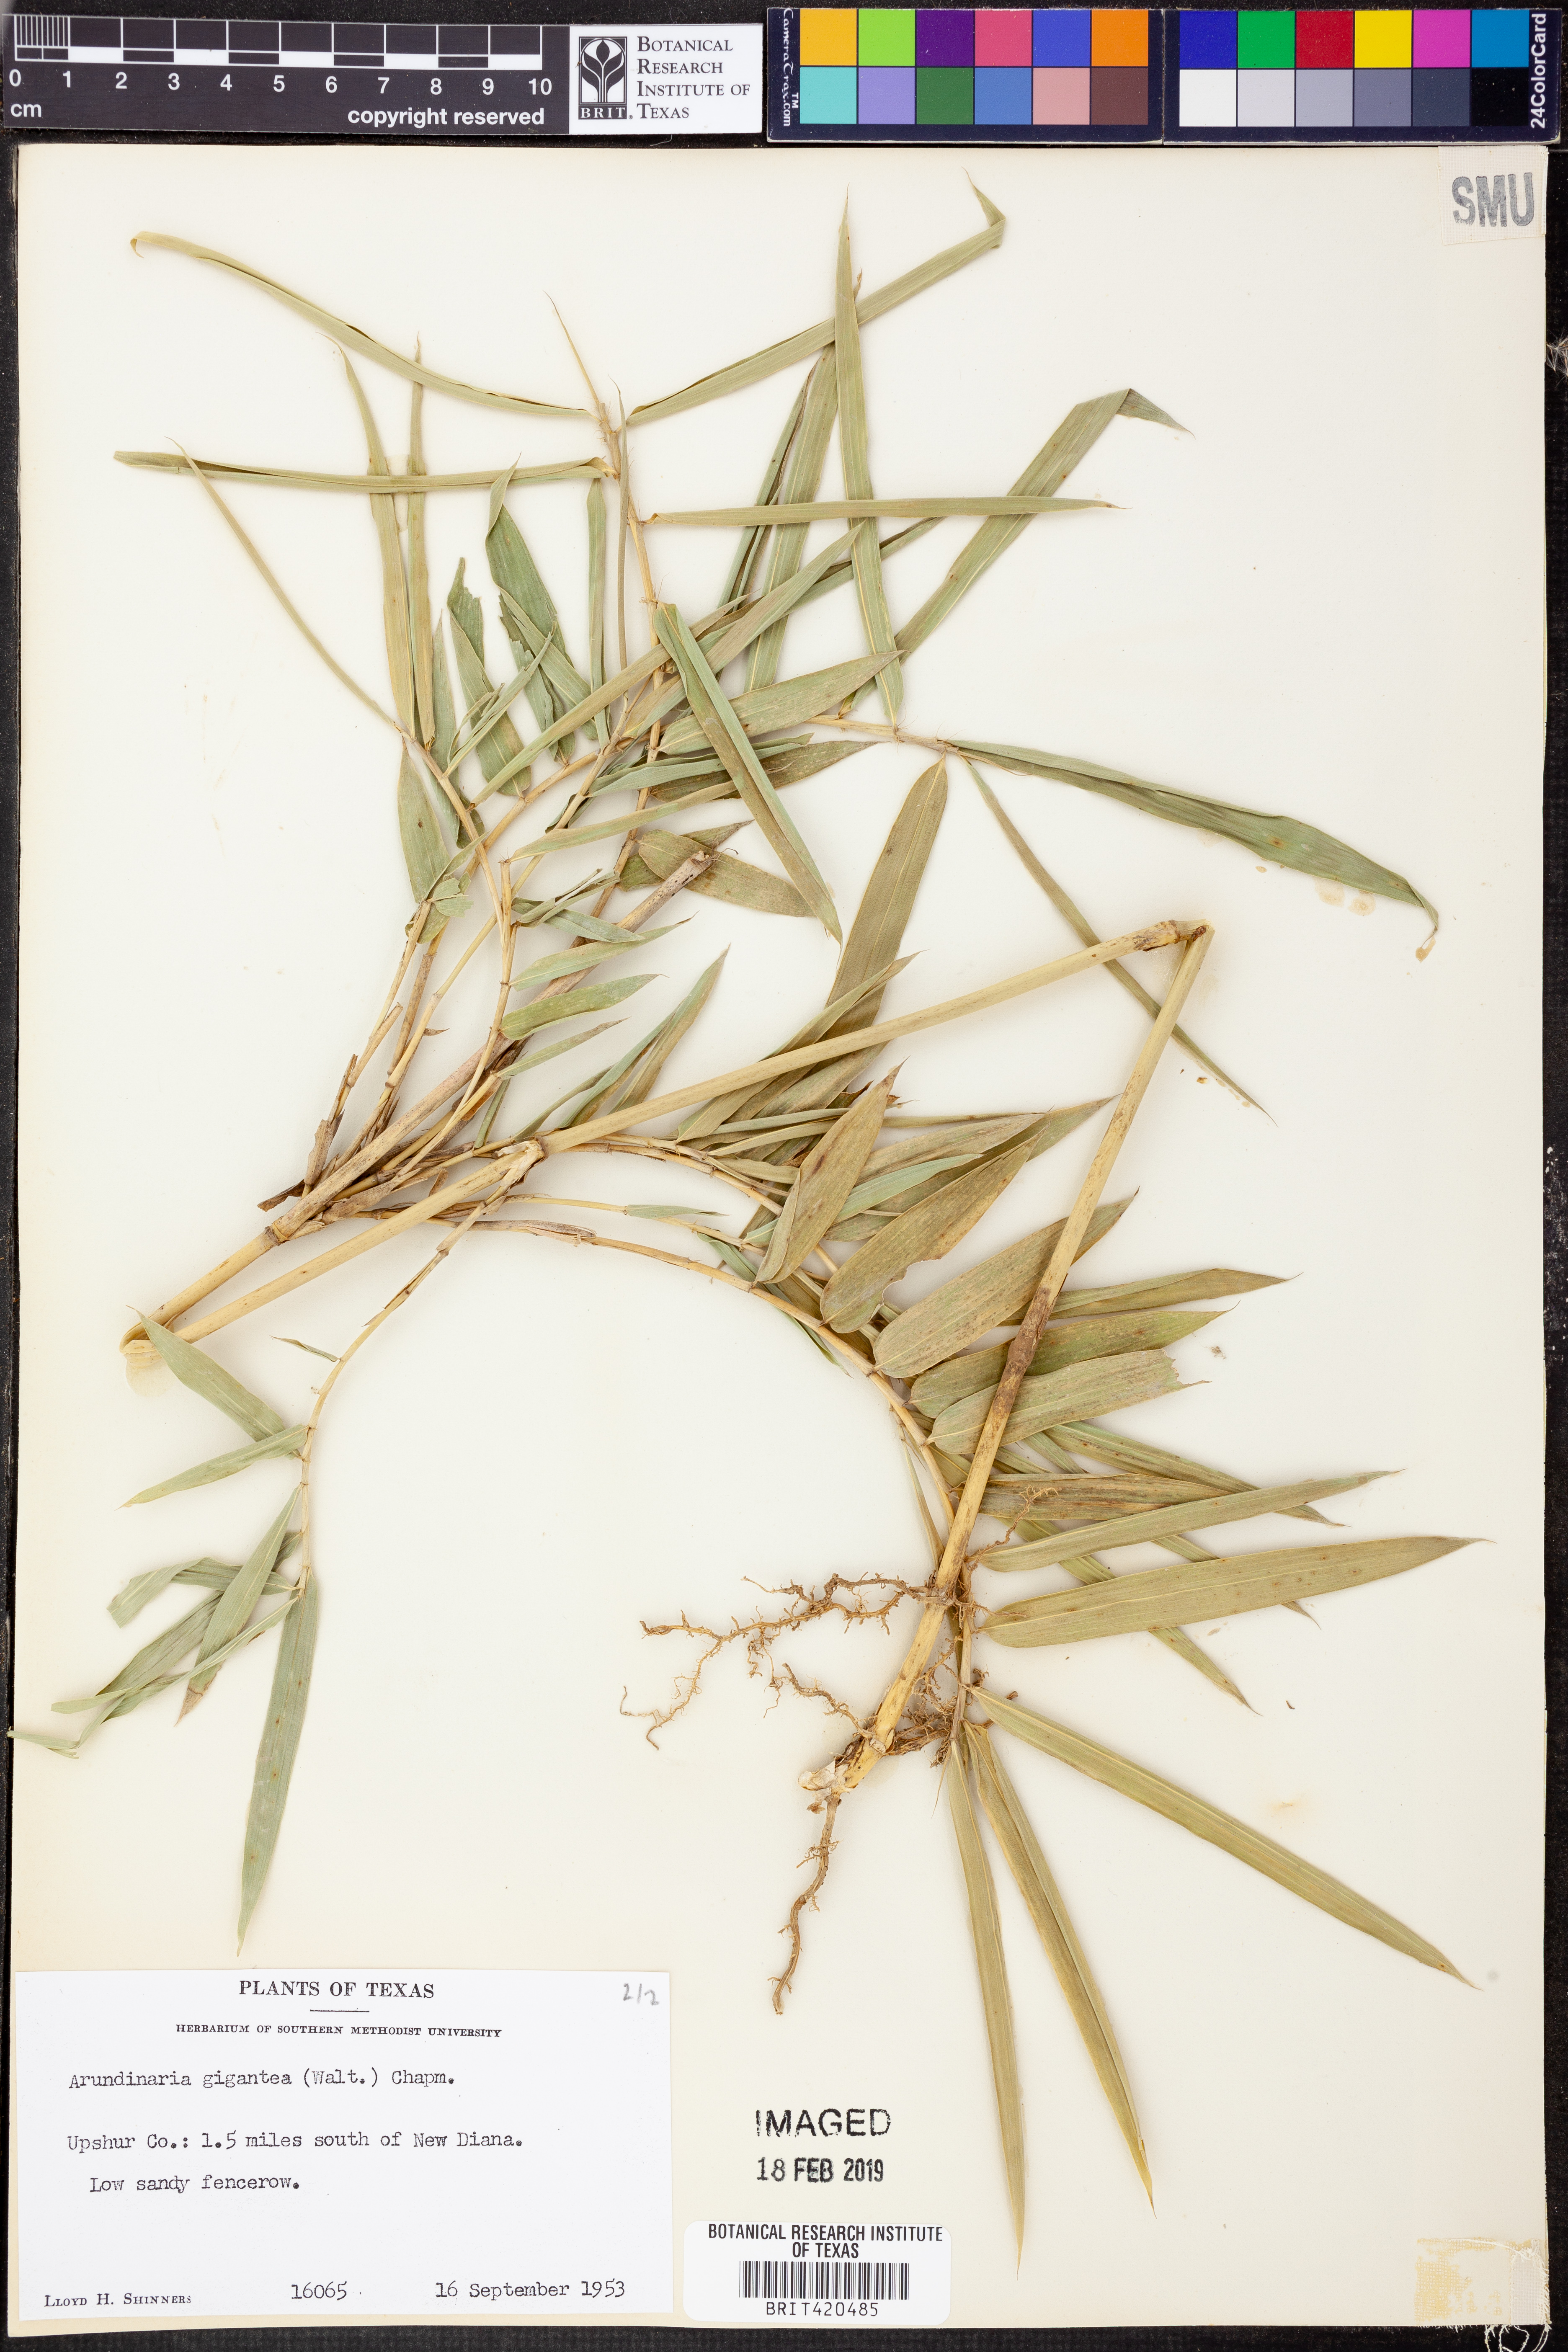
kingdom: Plantae
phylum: Tracheophyta
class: Liliopsida
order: Poales
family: Poaceae
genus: Arundinaria
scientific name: Arundinaria gigantea
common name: Giant cane
